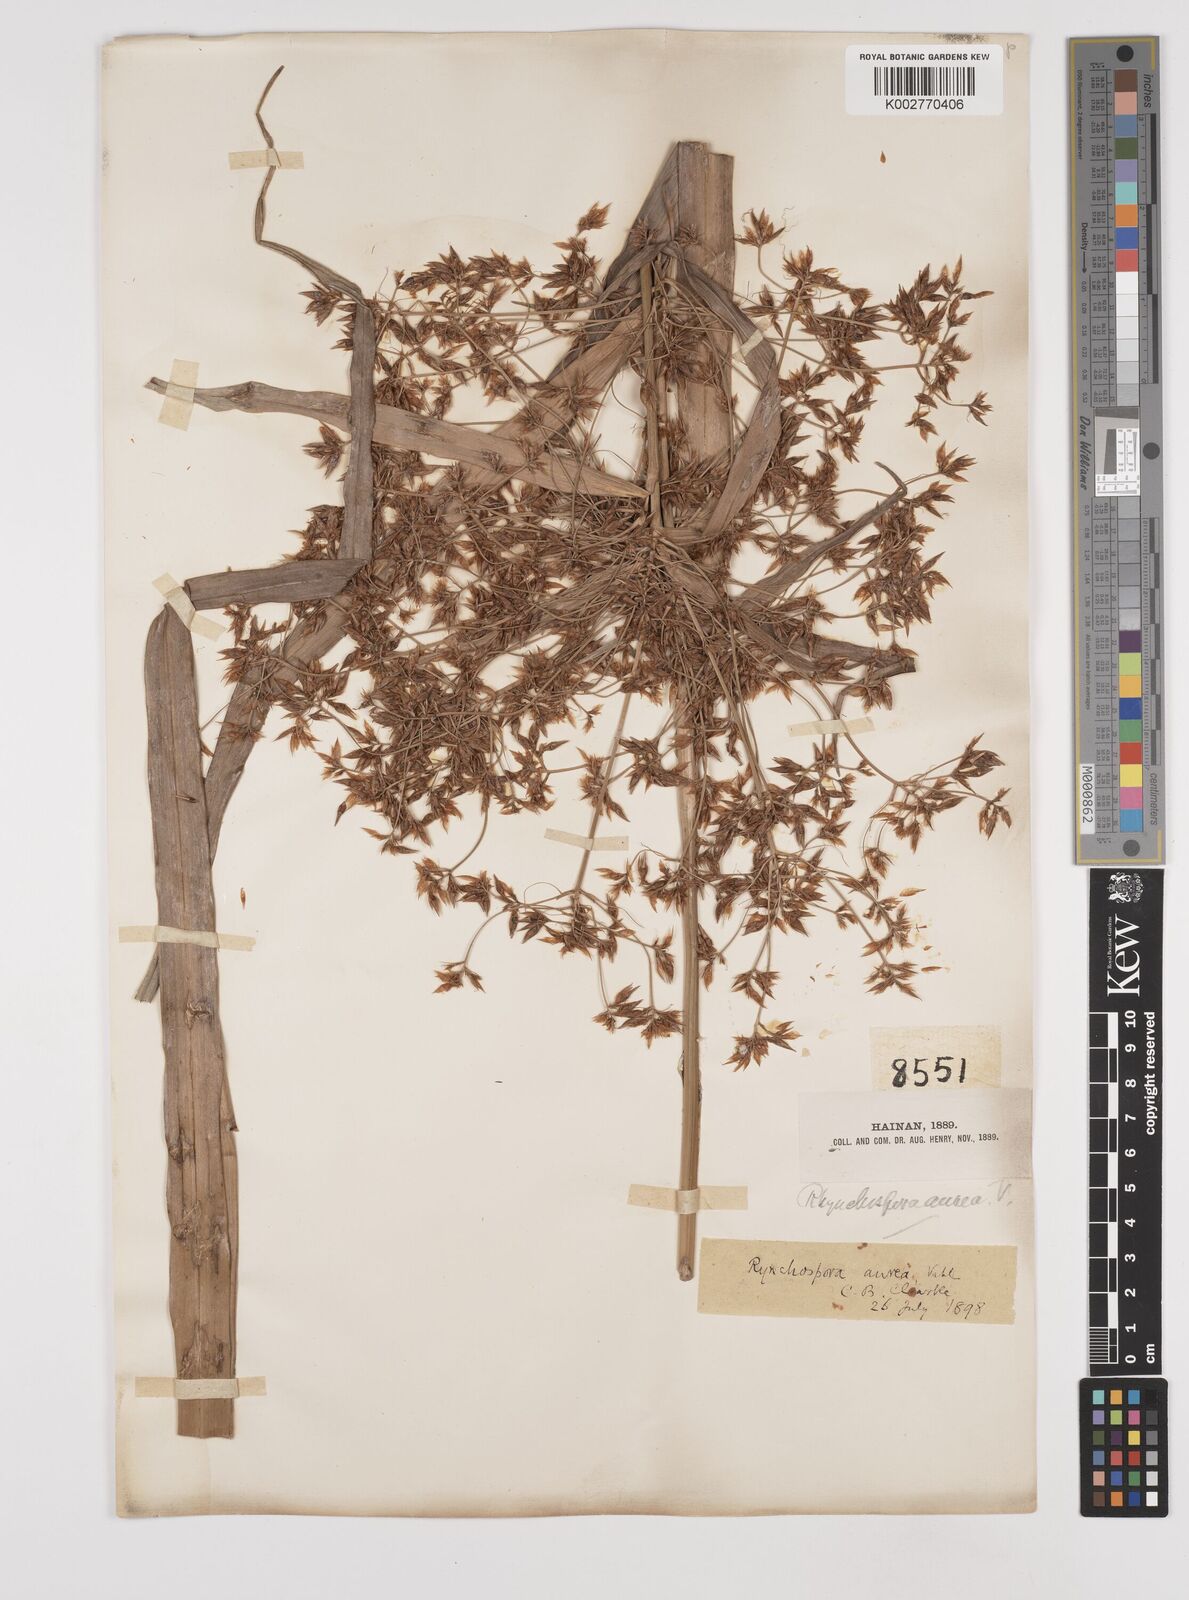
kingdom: Plantae
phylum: Tracheophyta
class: Liliopsida
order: Poales
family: Cyperaceae
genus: Rhynchospora
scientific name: Rhynchospora corymbosa
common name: Golden beak sedge
